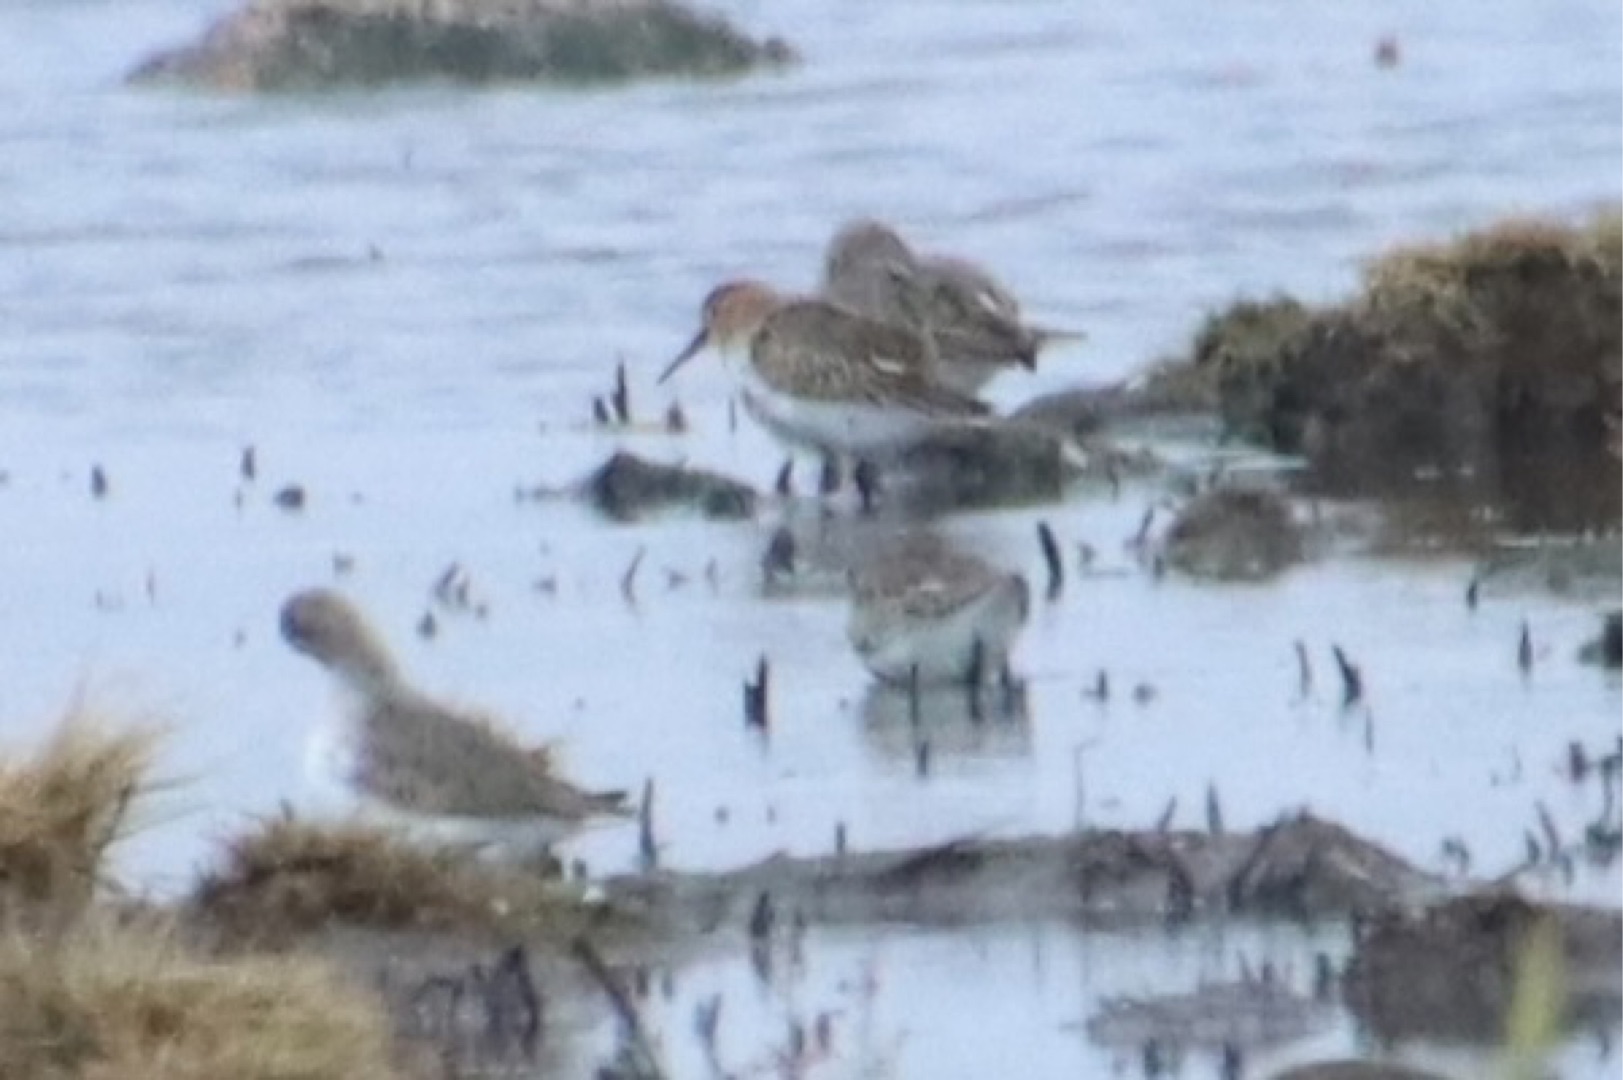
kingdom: Animalia
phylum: Chordata
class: Aves
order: Charadriiformes
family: Scolopacidae
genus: Calidris
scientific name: Calidris alpina
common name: Almindelig ryle
